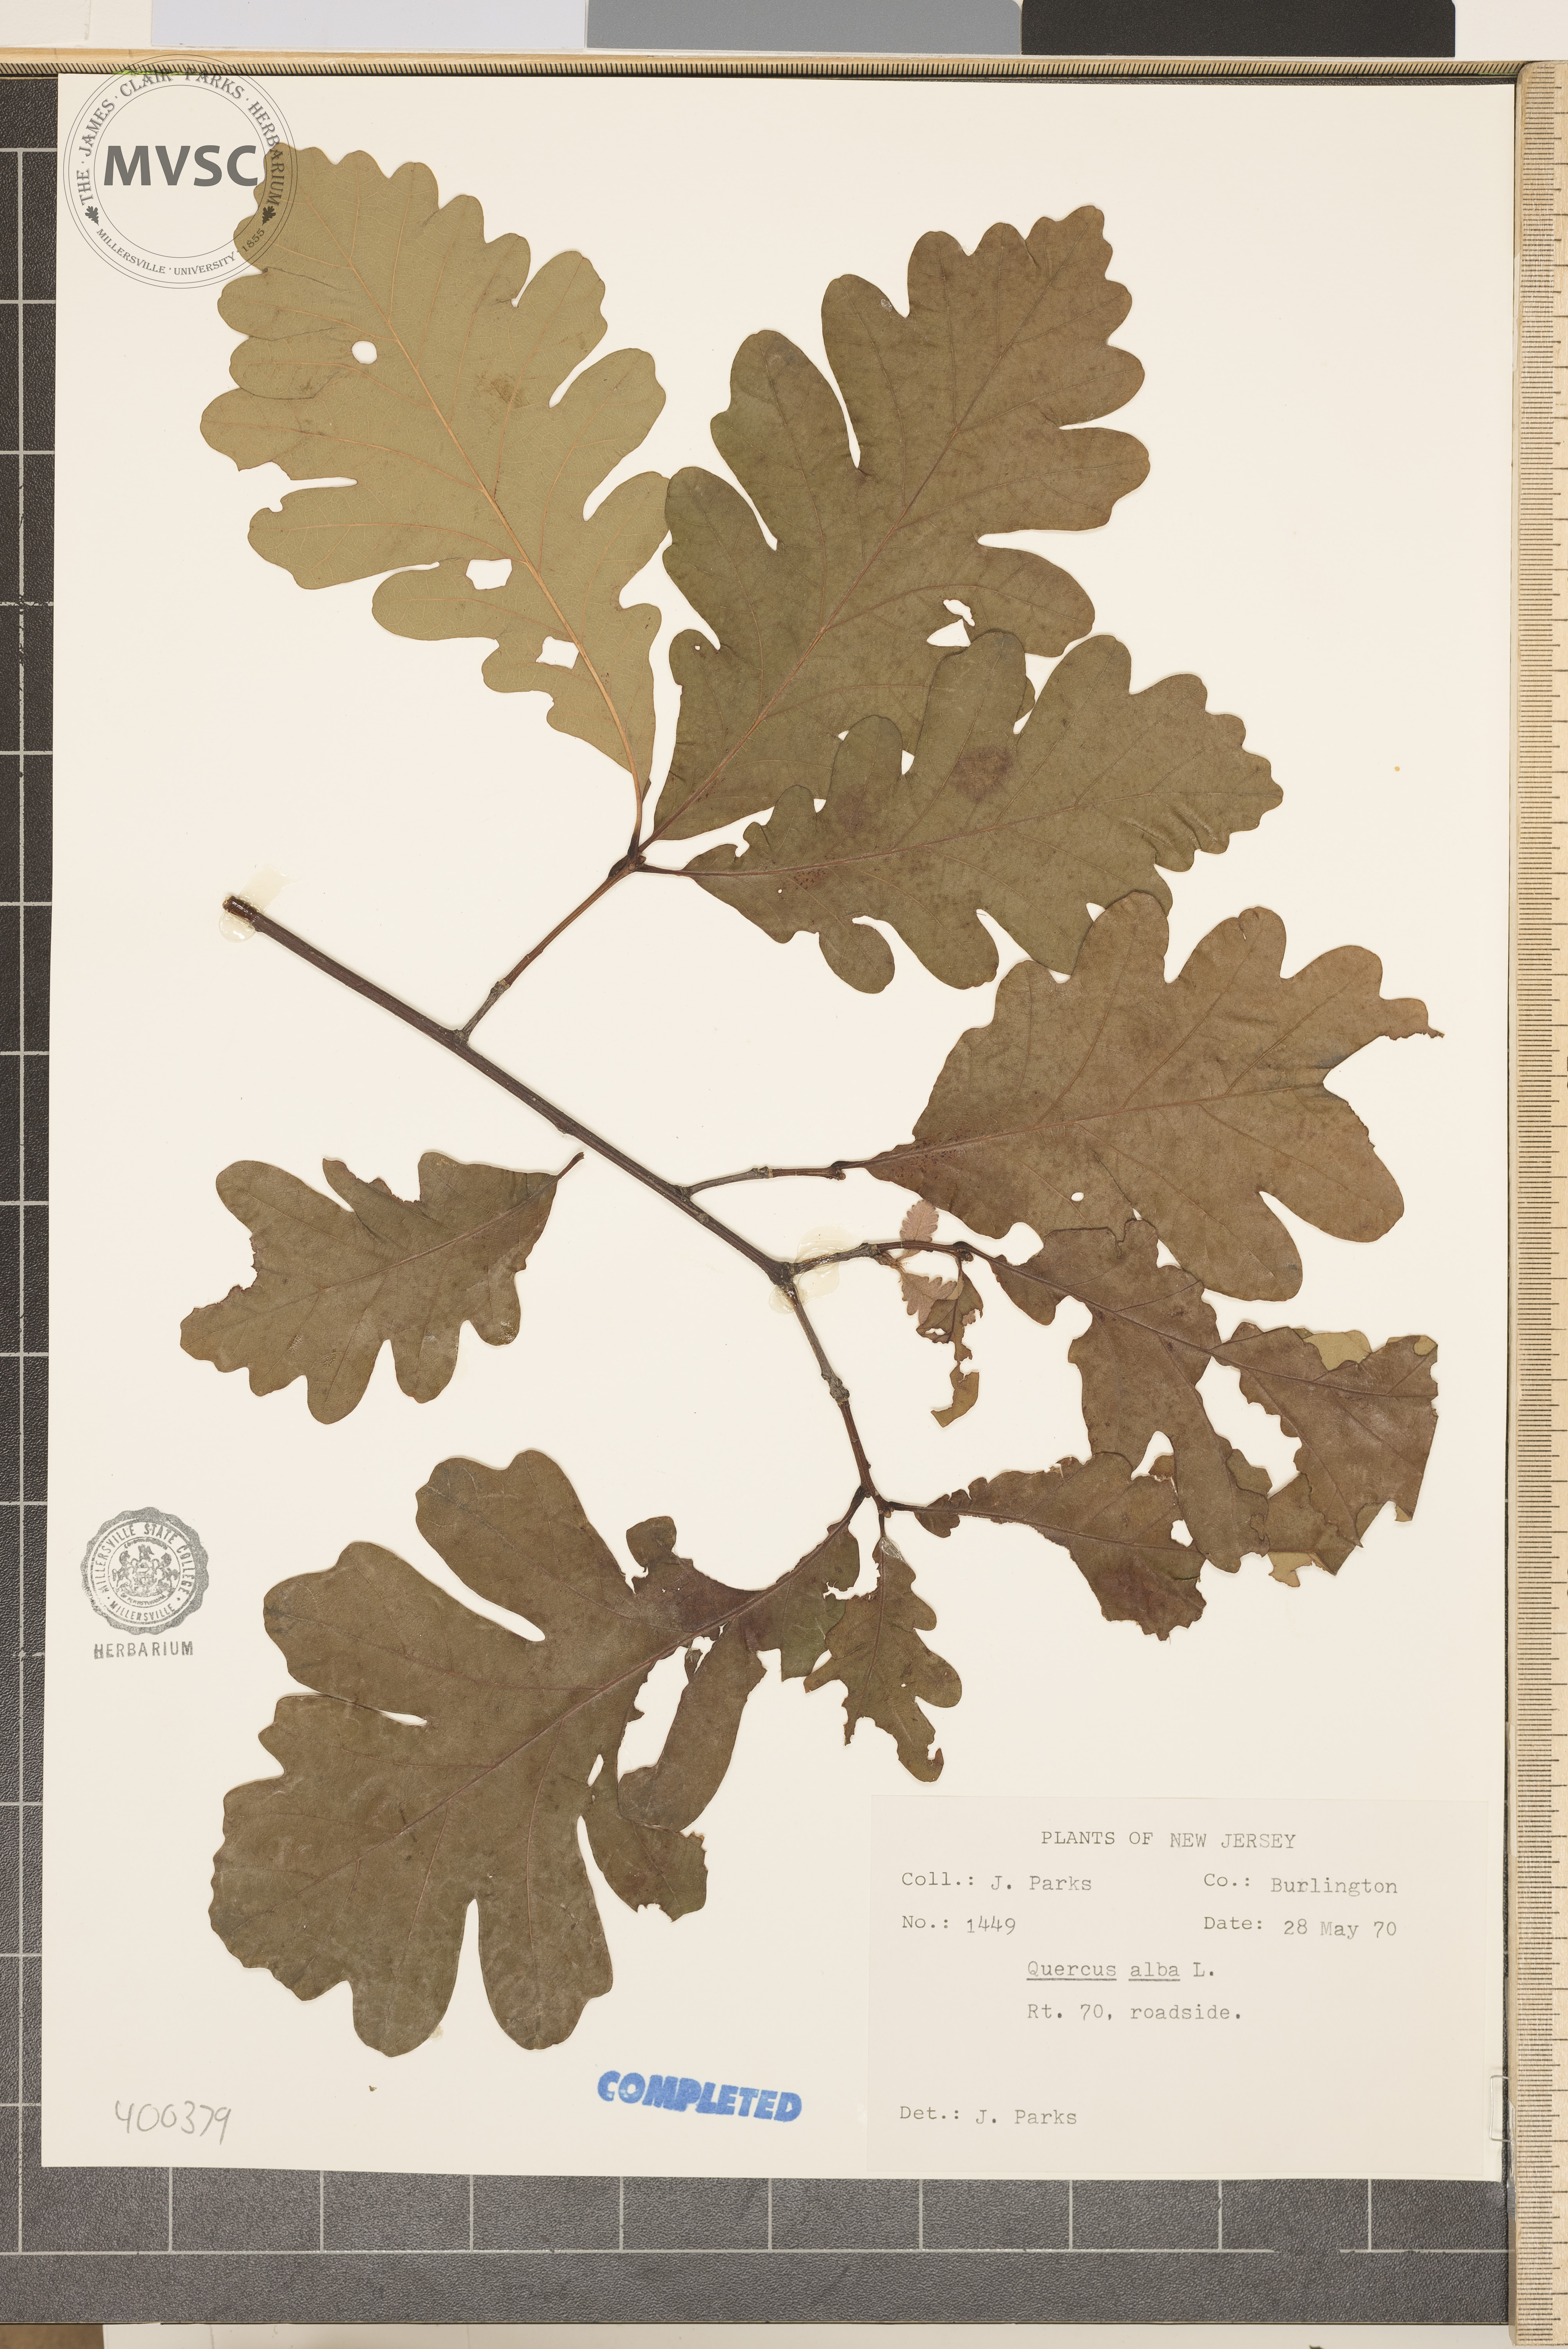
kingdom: Plantae
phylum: Tracheophyta
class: Magnoliopsida
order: Fagales
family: Fagaceae
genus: Quercus
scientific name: Quercus alba
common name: white oak
